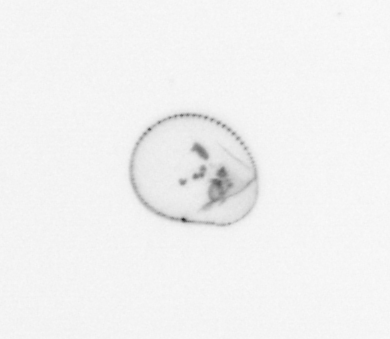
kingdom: Chromista
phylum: Myzozoa
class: Dinophyceae
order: Noctilucales
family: Noctilucaceae
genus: Noctiluca
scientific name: Noctiluca scintillans
